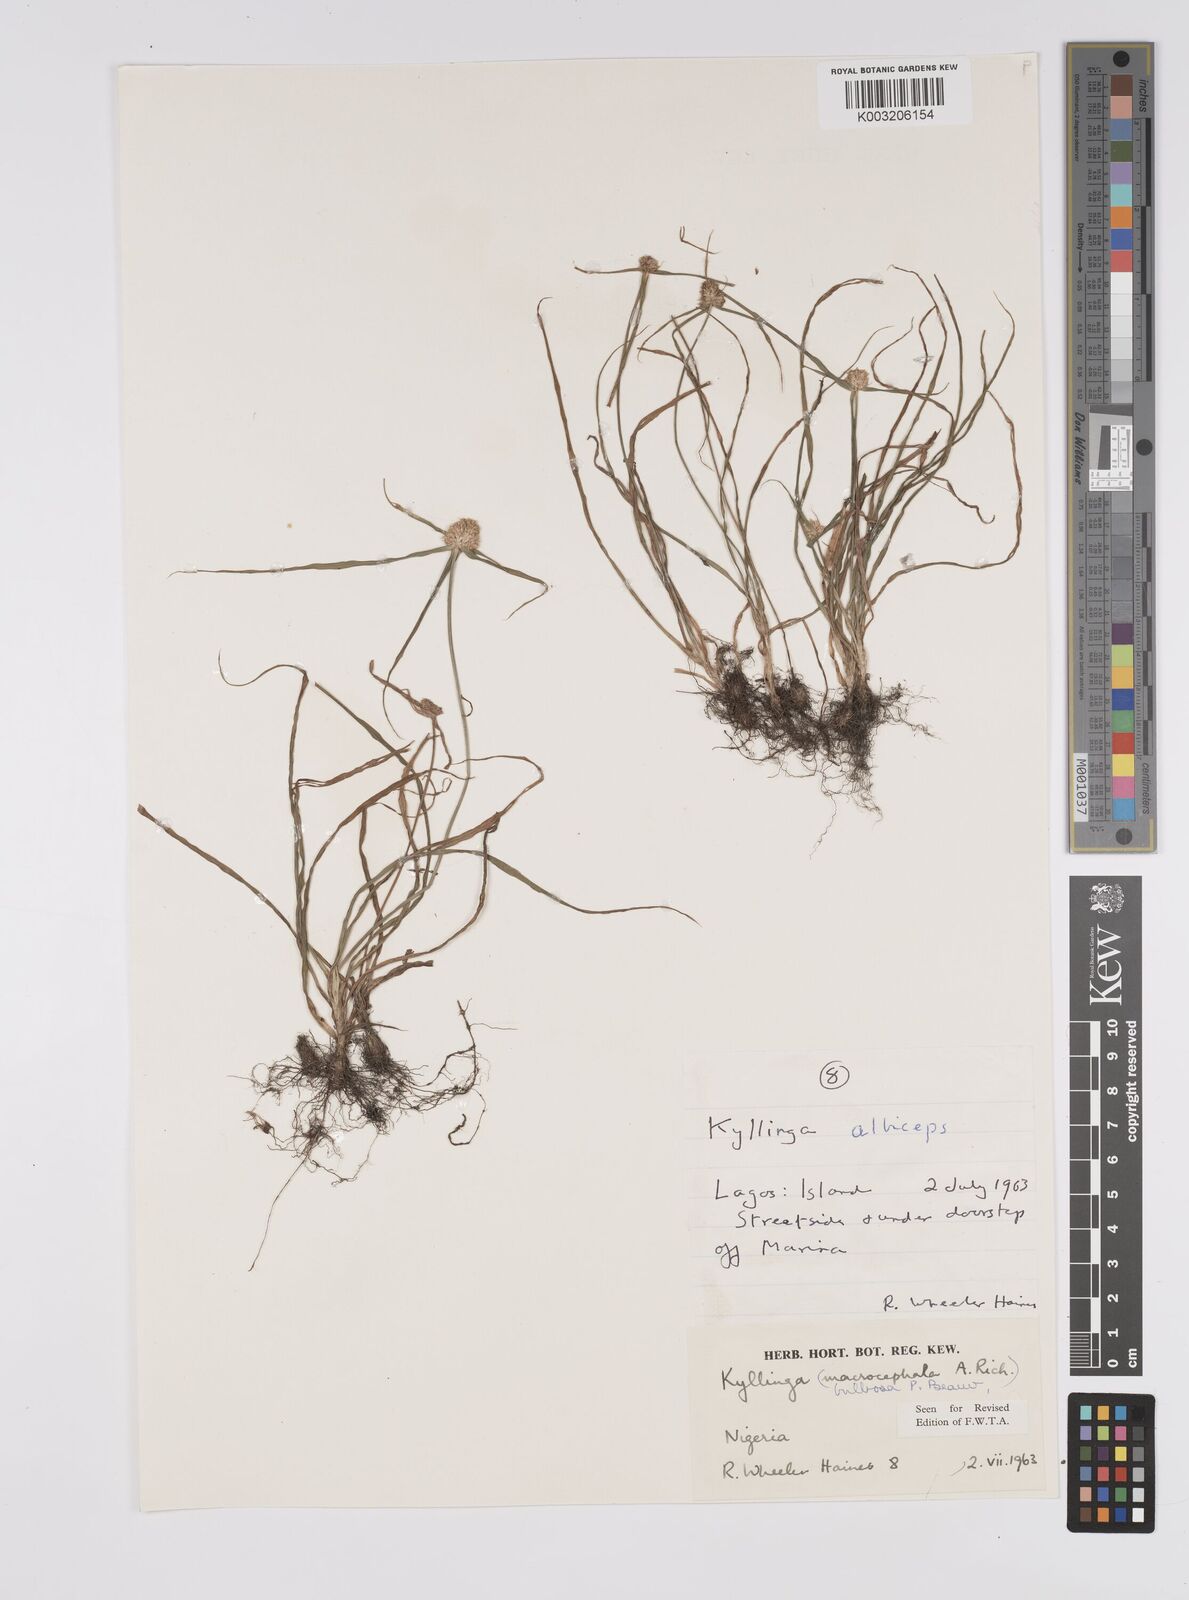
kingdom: Plantae
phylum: Tracheophyta
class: Liliopsida
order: Poales
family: Cyperaceae
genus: Cyperus
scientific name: Cyperus
